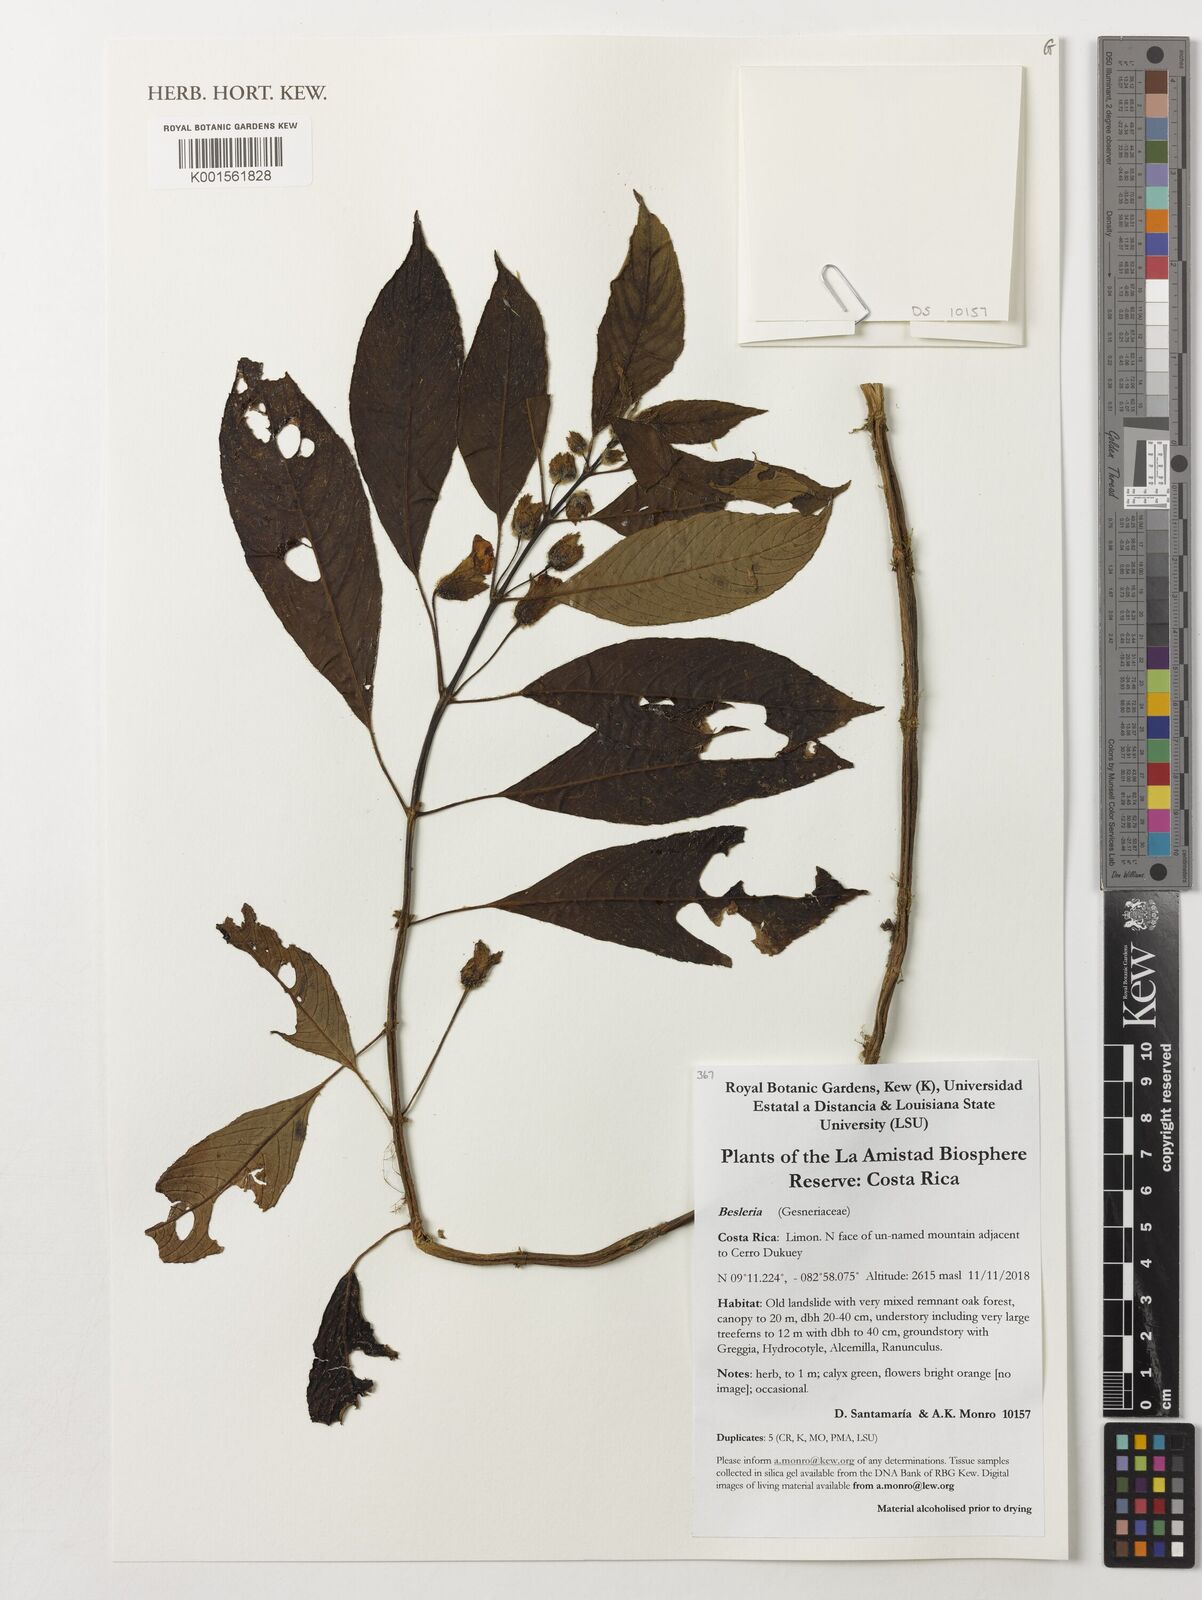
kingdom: Plantae
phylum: Tracheophyta
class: Magnoliopsida
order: Lamiales
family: Gesneriaceae
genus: Besleria
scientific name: Besleria
